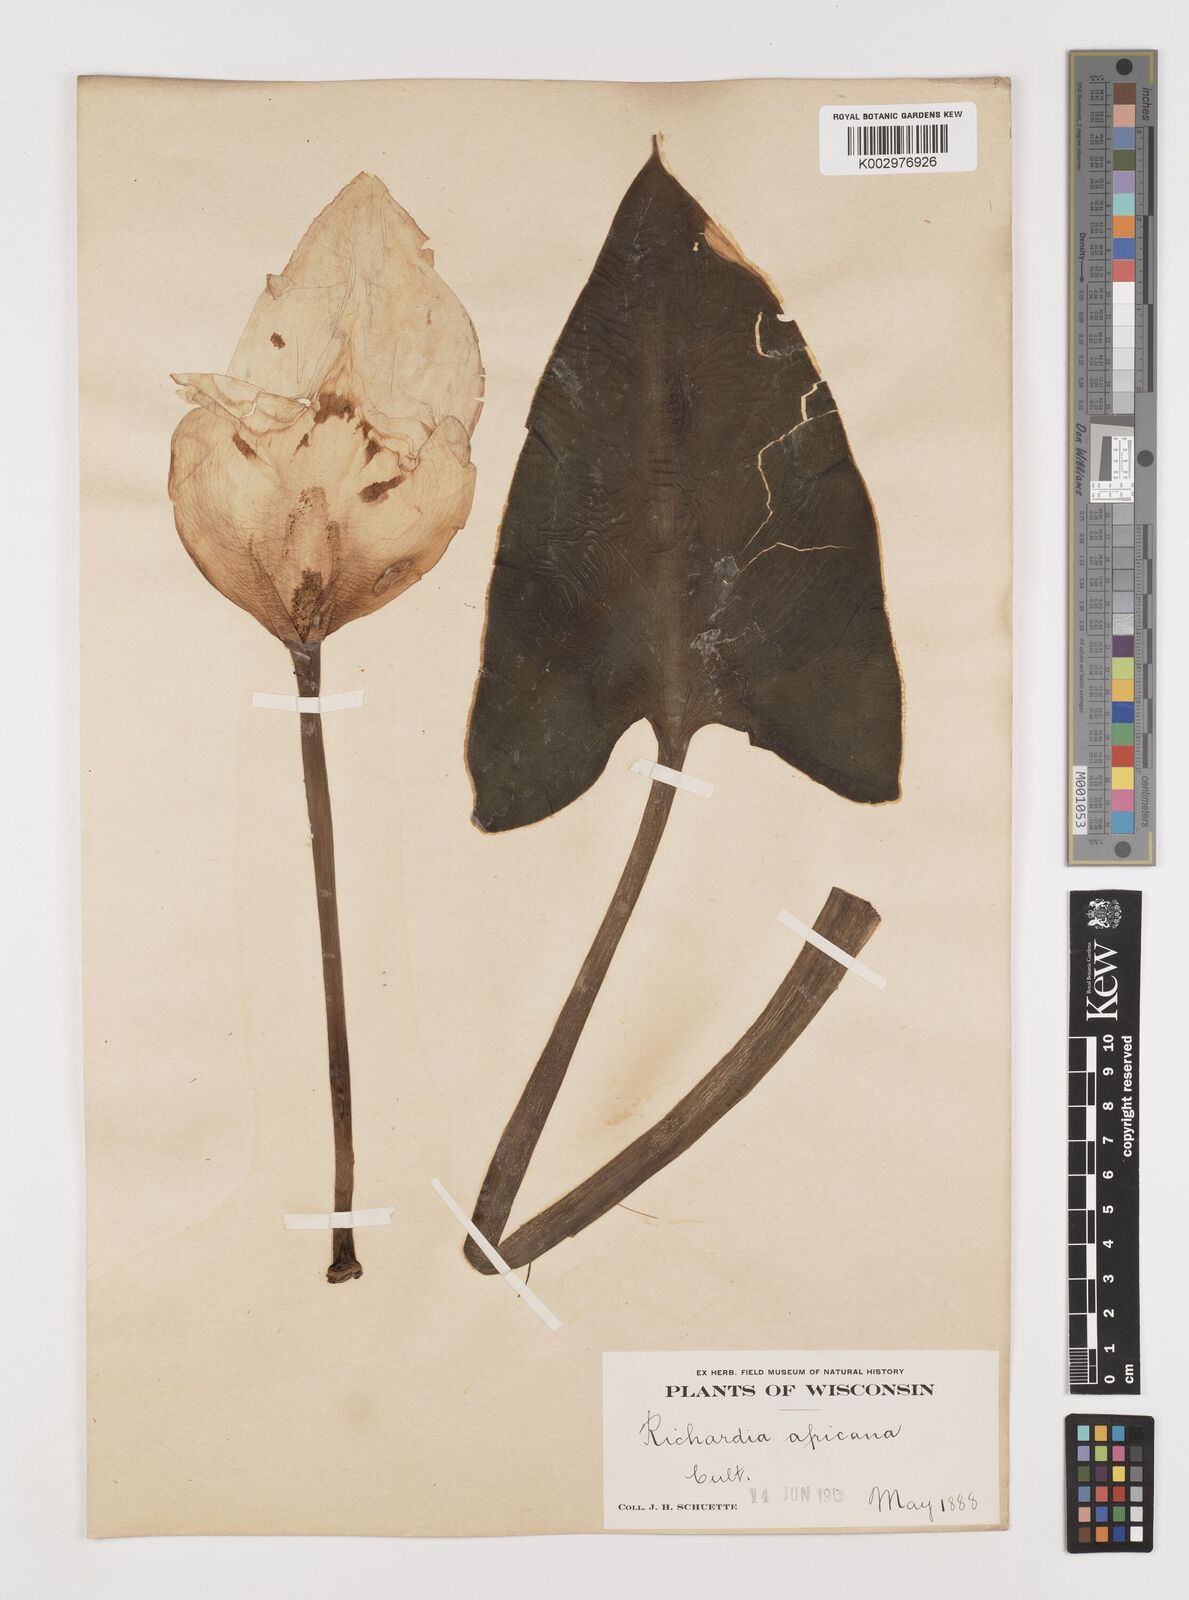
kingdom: Plantae
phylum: Tracheophyta
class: Liliopsida
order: Alismatales
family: Araceae
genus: Zantedeschia
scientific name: Zantedeschia aethiopica
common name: Altar-lily
